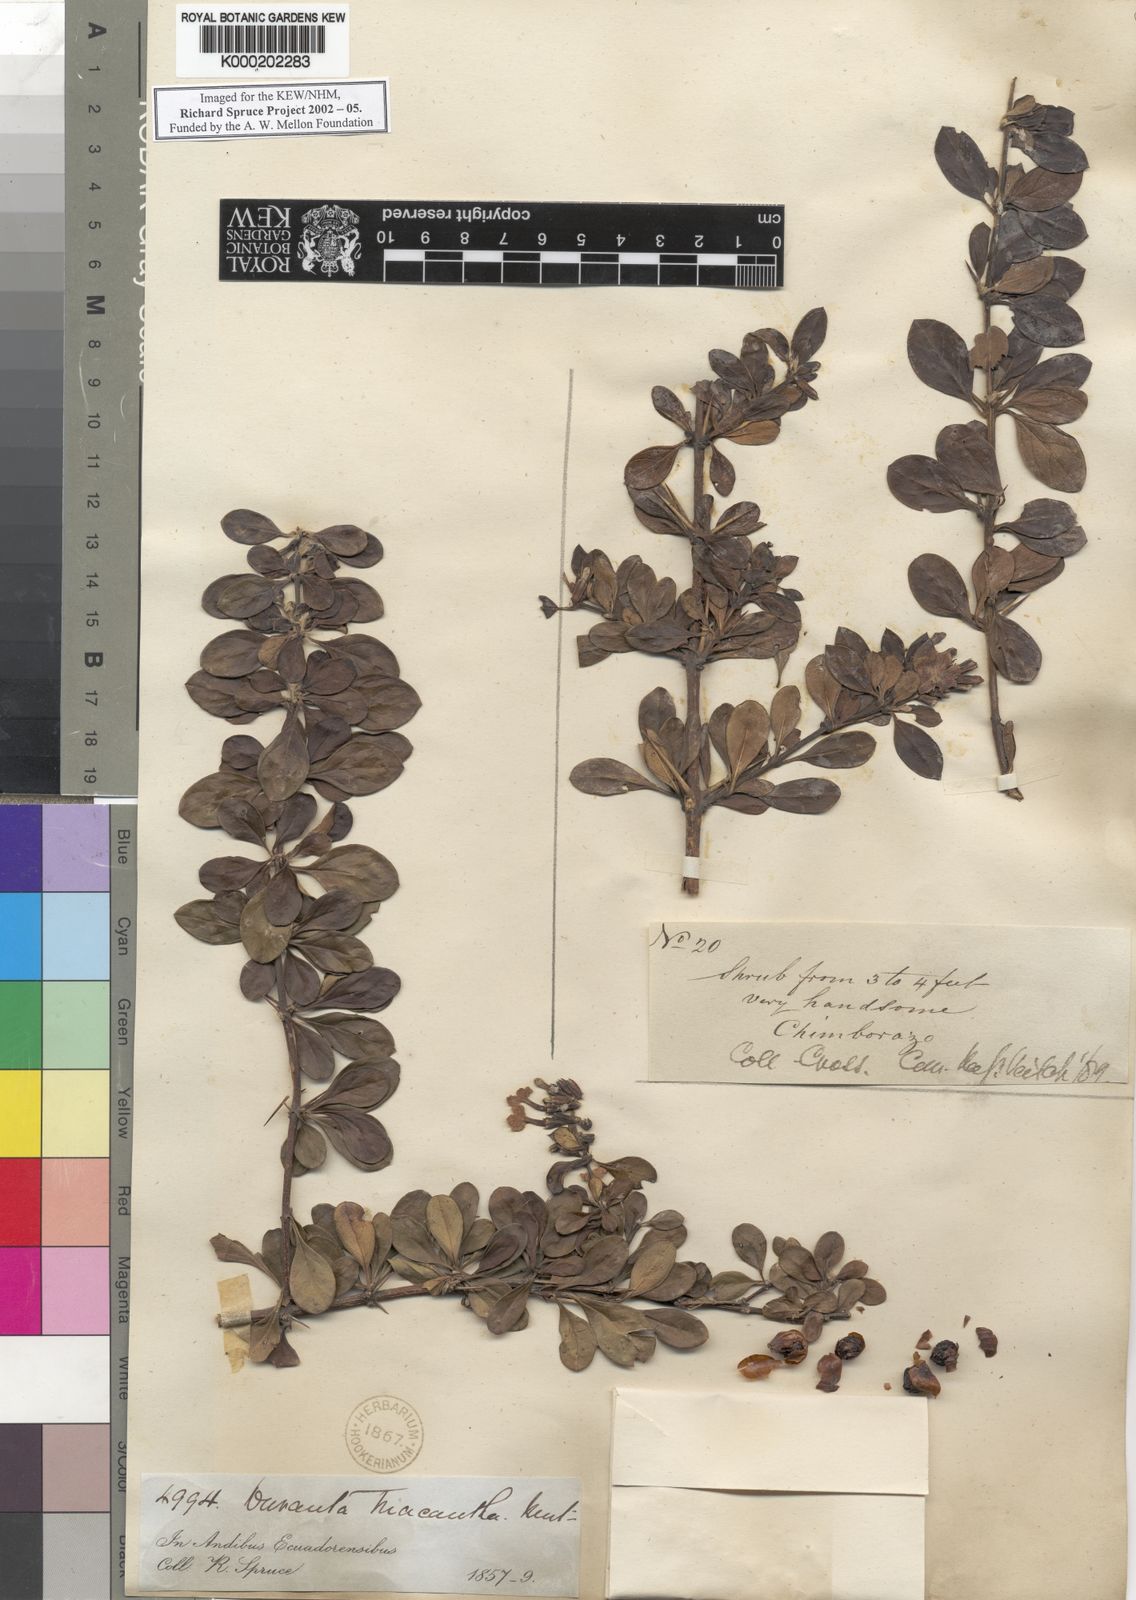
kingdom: Plantae
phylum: Tracheophyta
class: Magnoliopsida
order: Lamiales
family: Verbenaceae
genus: Duranta
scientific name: Duranta triacantha
